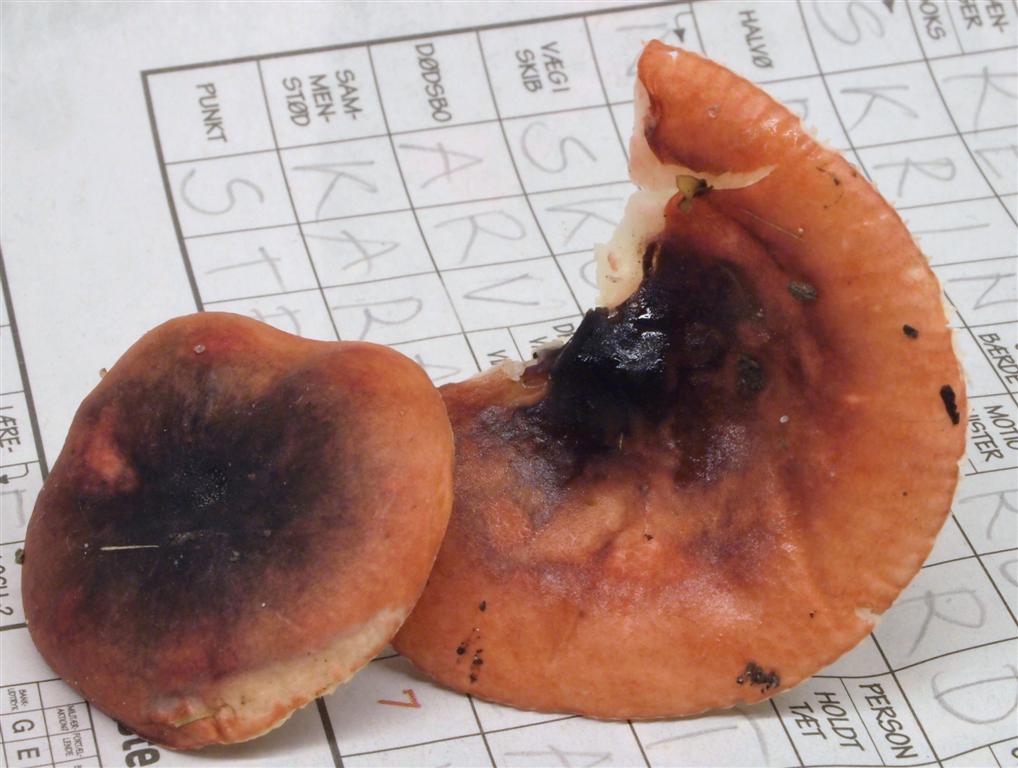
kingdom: Fungi
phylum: Basidiomycota
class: Agaricomycetes
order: Russulales
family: Russulaceae
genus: Russula
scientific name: Russula laccata
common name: klit-skørhat
